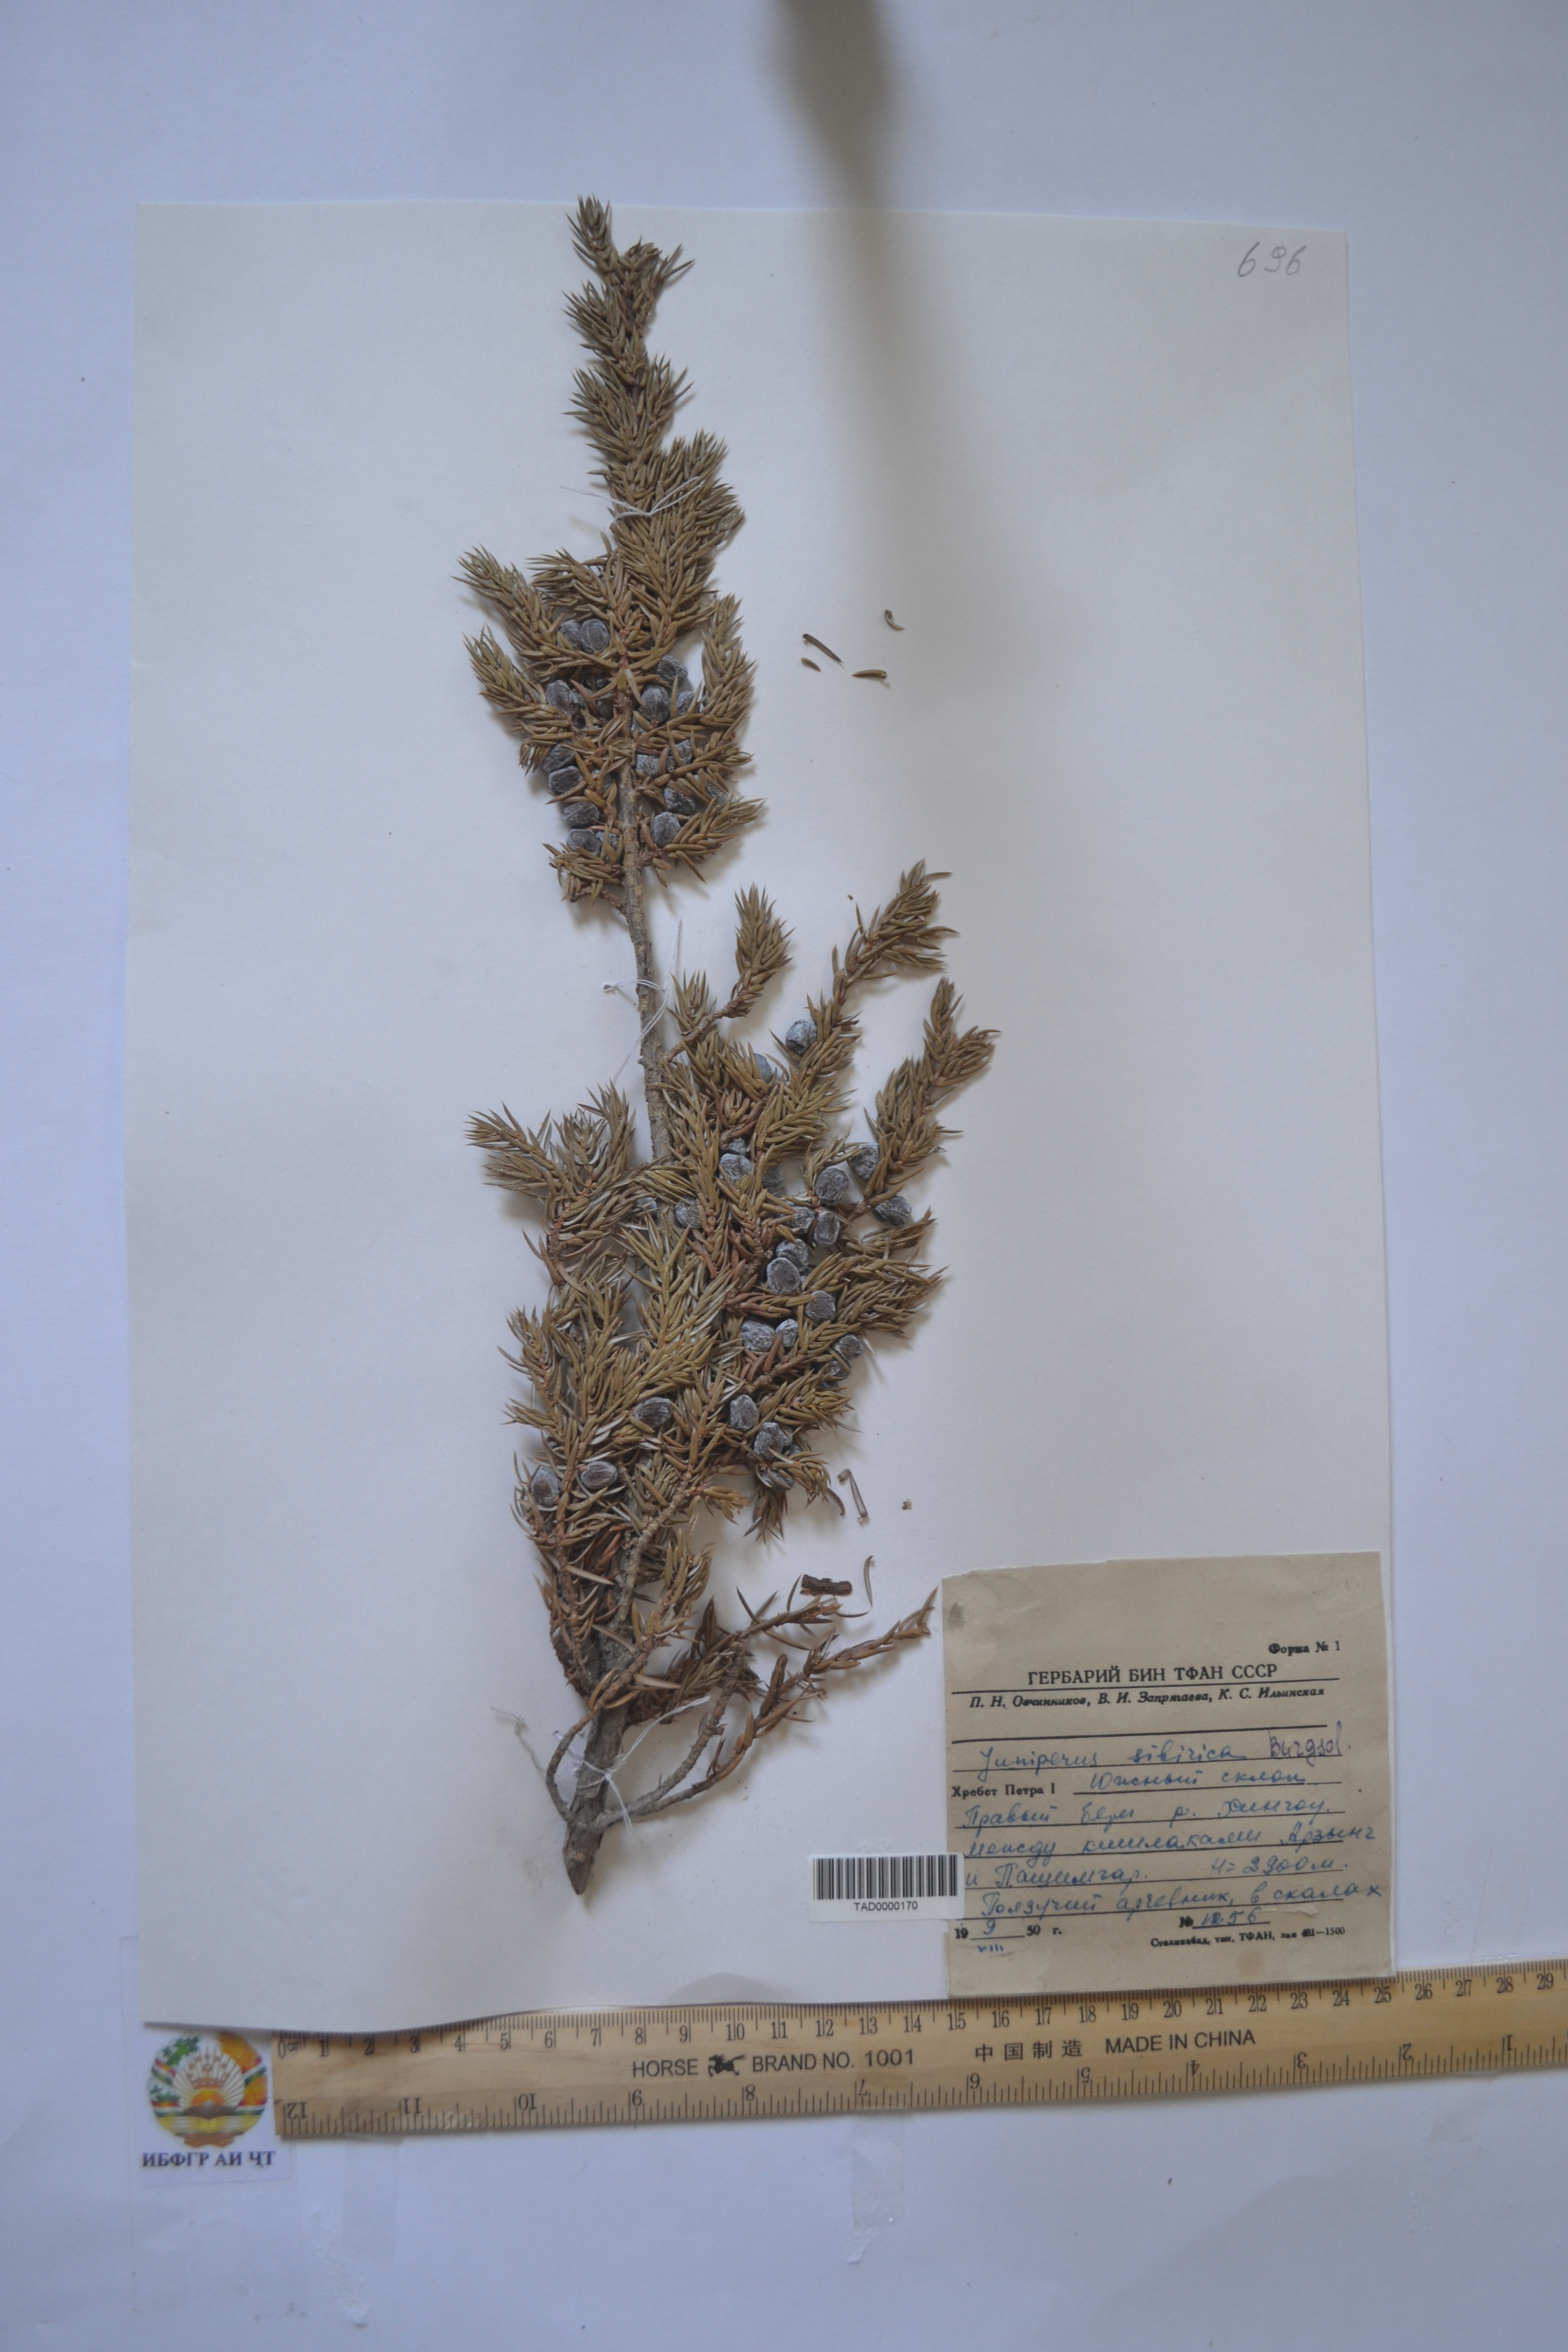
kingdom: Plantae
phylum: Tracheophyta
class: Pinopsida
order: Pinales
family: Cupressaceae
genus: Juniperus
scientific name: Juniperus communis
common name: Common juniper
